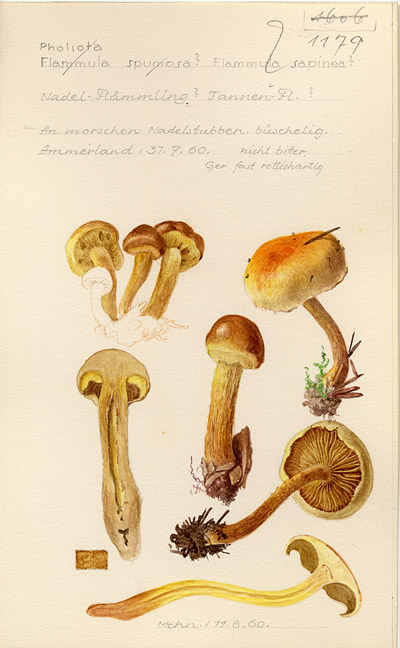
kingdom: Fungi
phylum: Basidiomycota
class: Agaricomycetes
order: Agaricales
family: Strophariaceae
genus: Pholiota
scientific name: Pholiota spumosa
